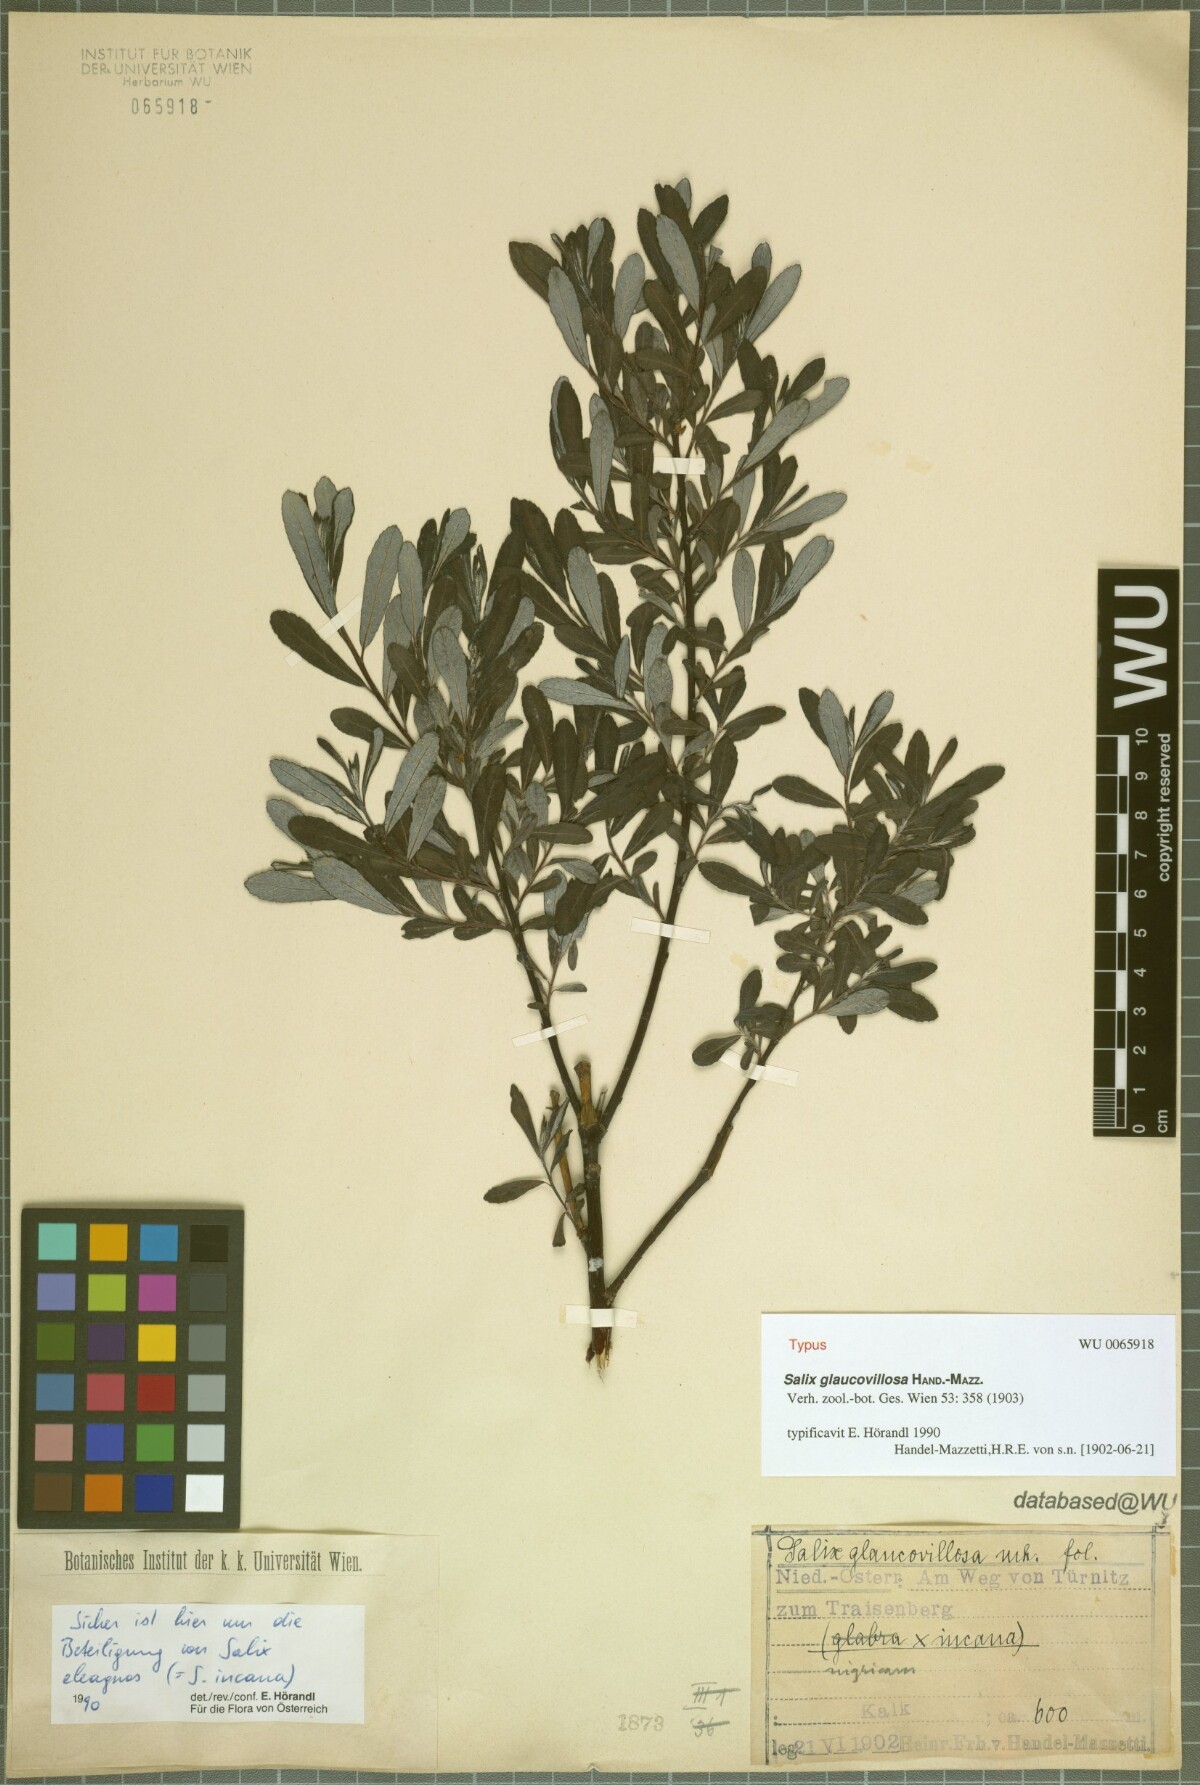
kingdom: Plantae
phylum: Tracheophyta
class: Magnoliopsida
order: Malpighiales
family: Salicaceae
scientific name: Salicaceae
